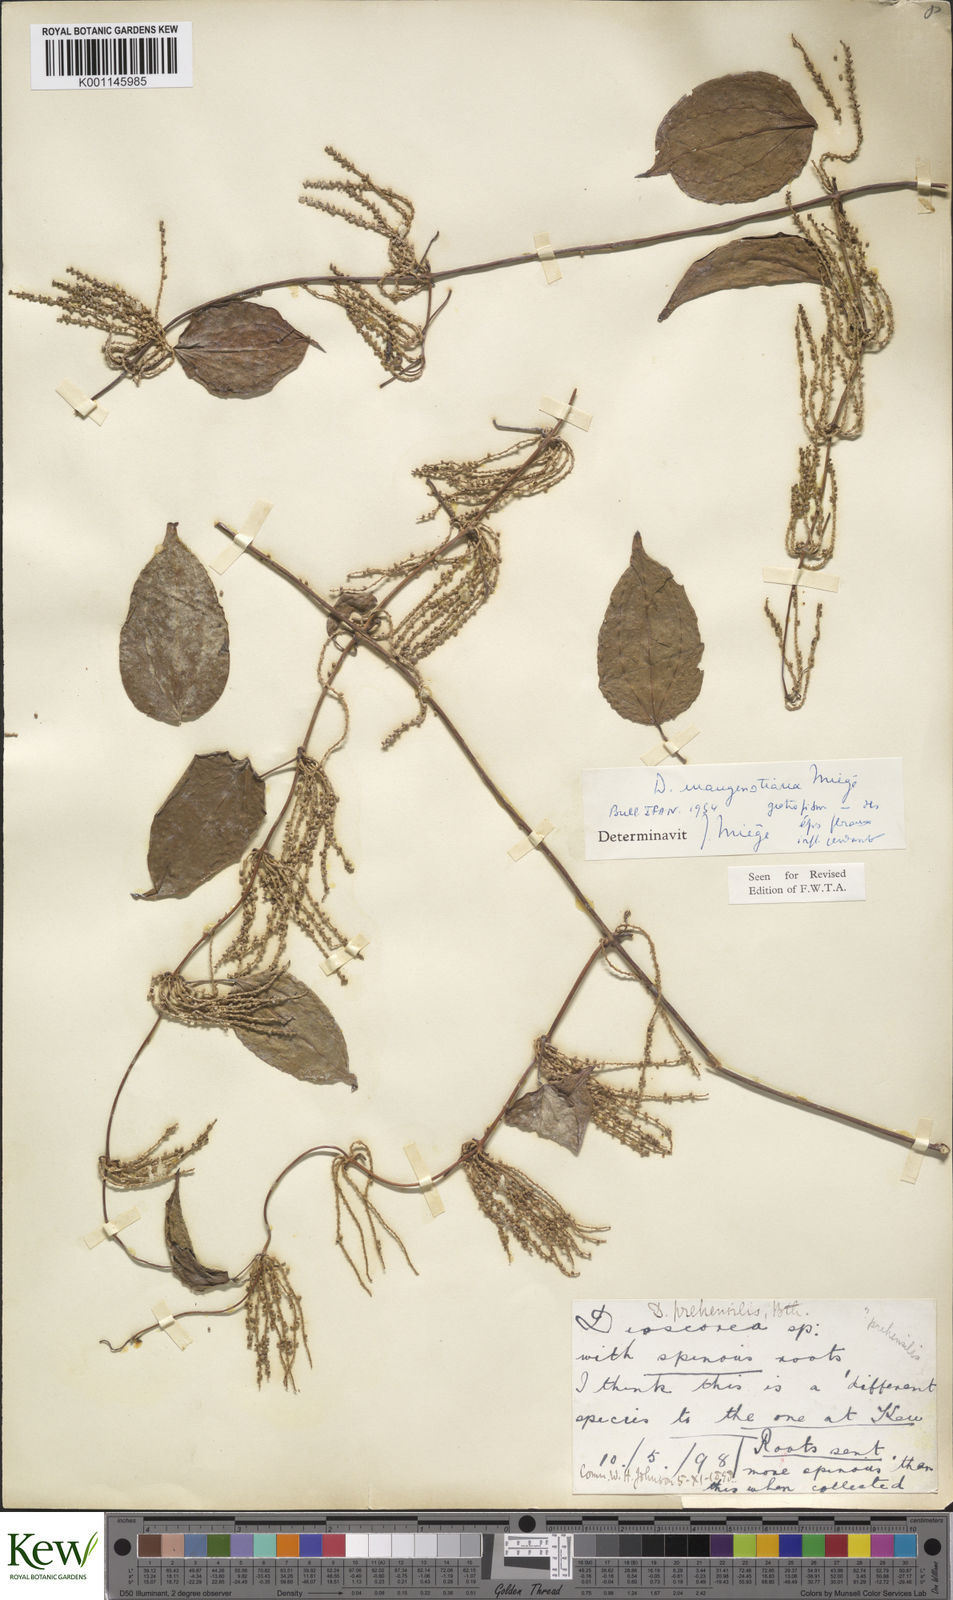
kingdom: Plantae
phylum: Tracheophyta
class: Liliopsida
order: Dioscoreales
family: Dioscoreaceae
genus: Dioscorea
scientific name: Dioscorea
